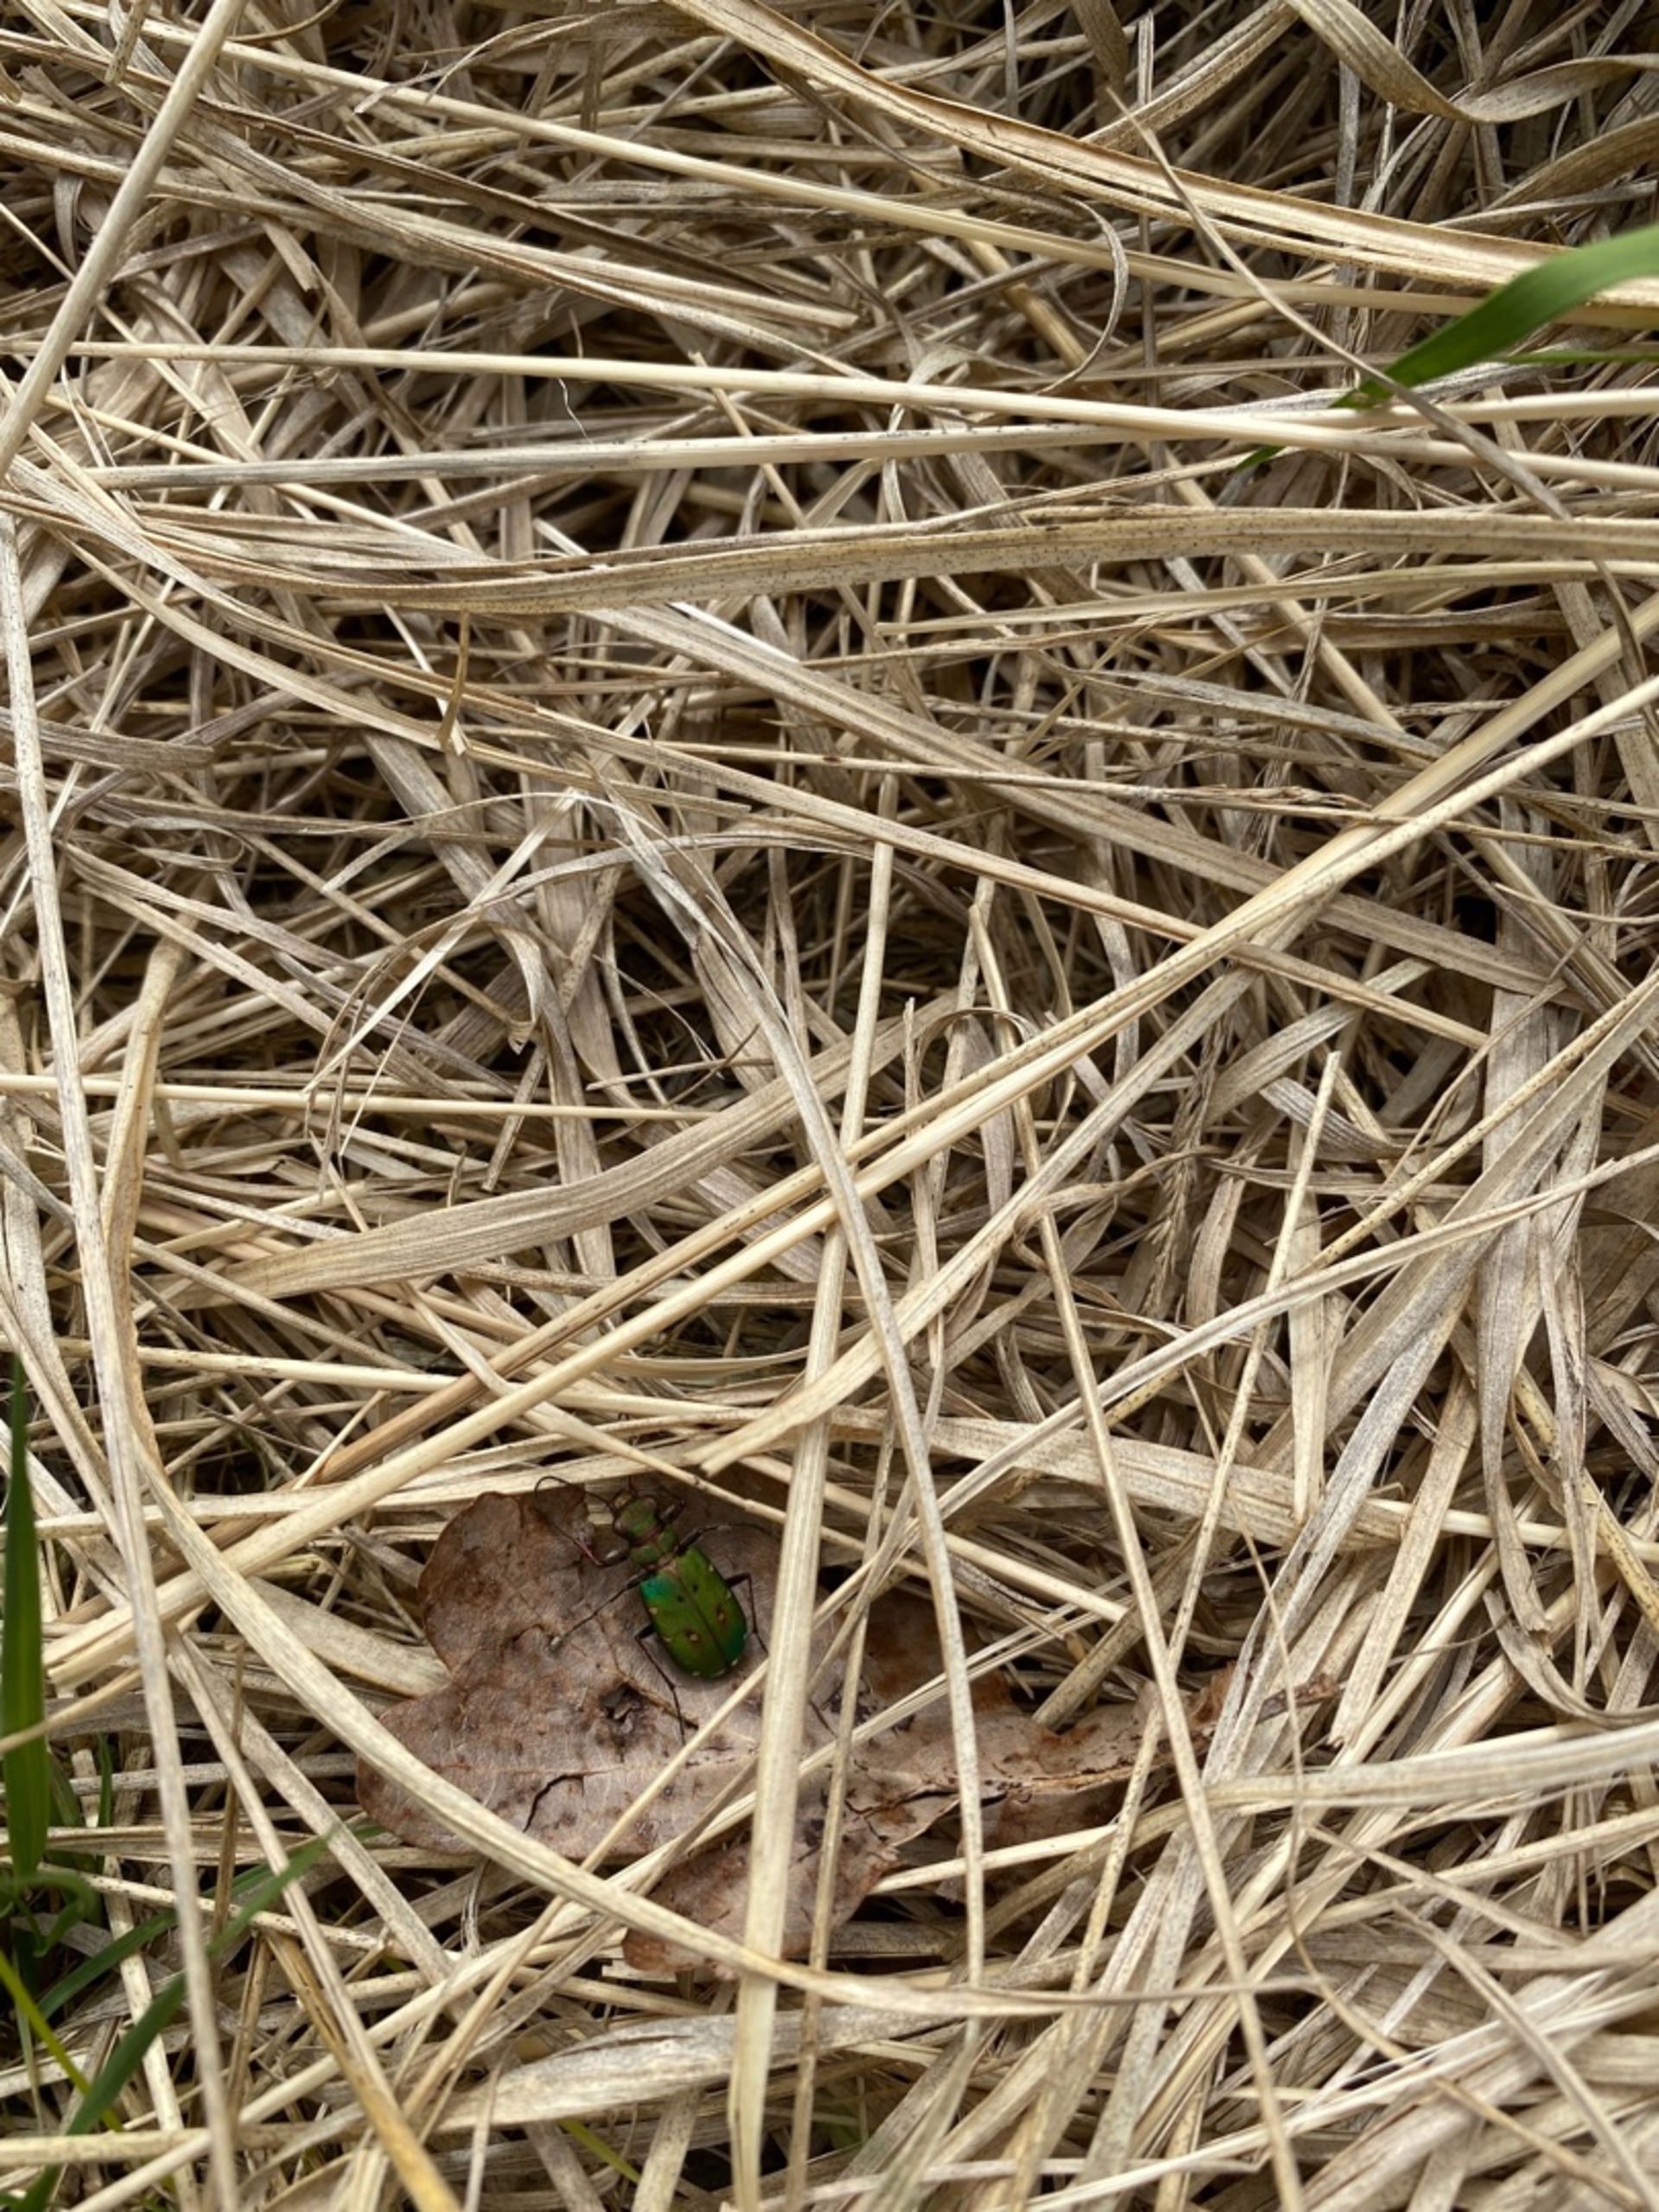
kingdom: Animalia
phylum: Arthropoda
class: Insecta
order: Coleoptera
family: Carabidae
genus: Cicindela
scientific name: Cicindela campestris
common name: Grøn sandspringer
